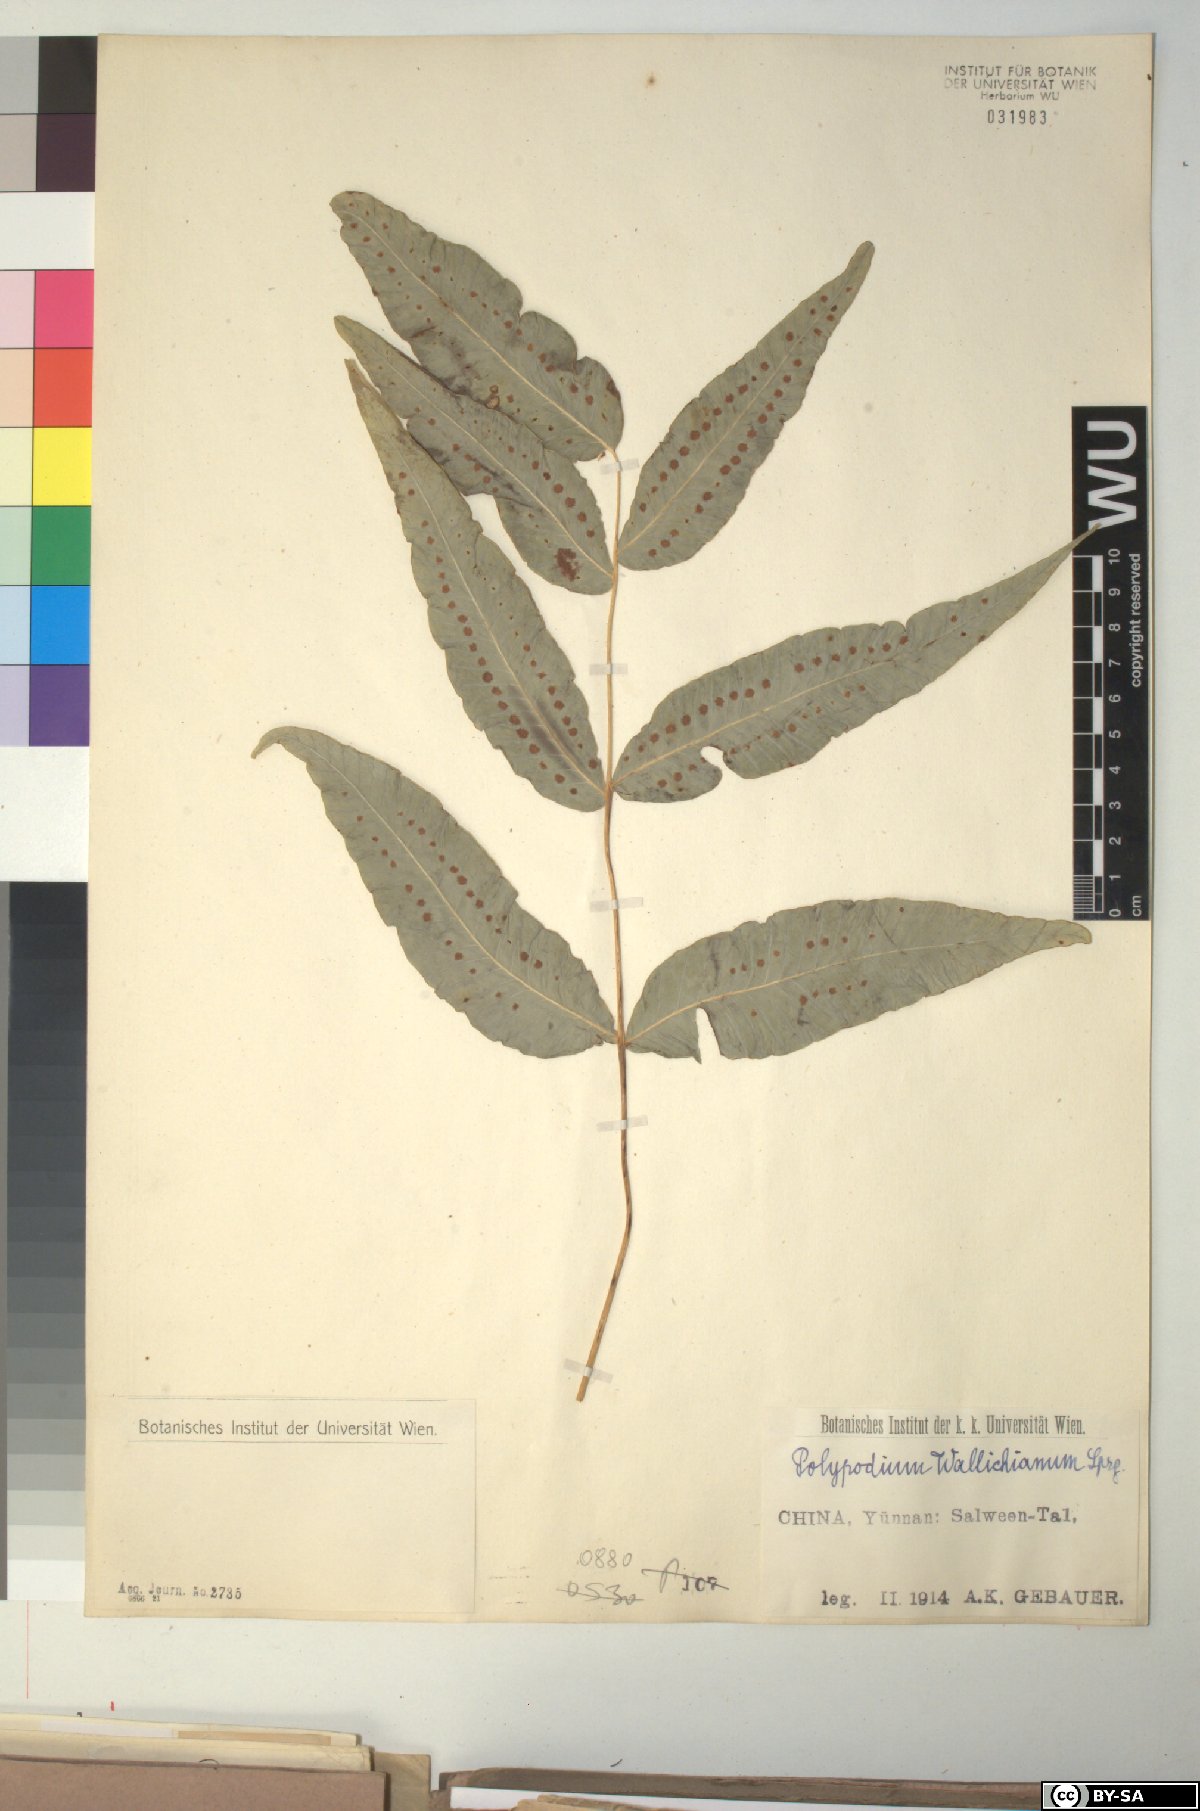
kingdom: Plantae
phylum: Tracheophyta
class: Polypodiopsida
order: Polypodiales
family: Polypodiaceae
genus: Selliguea
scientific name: Selliguea capitellata
